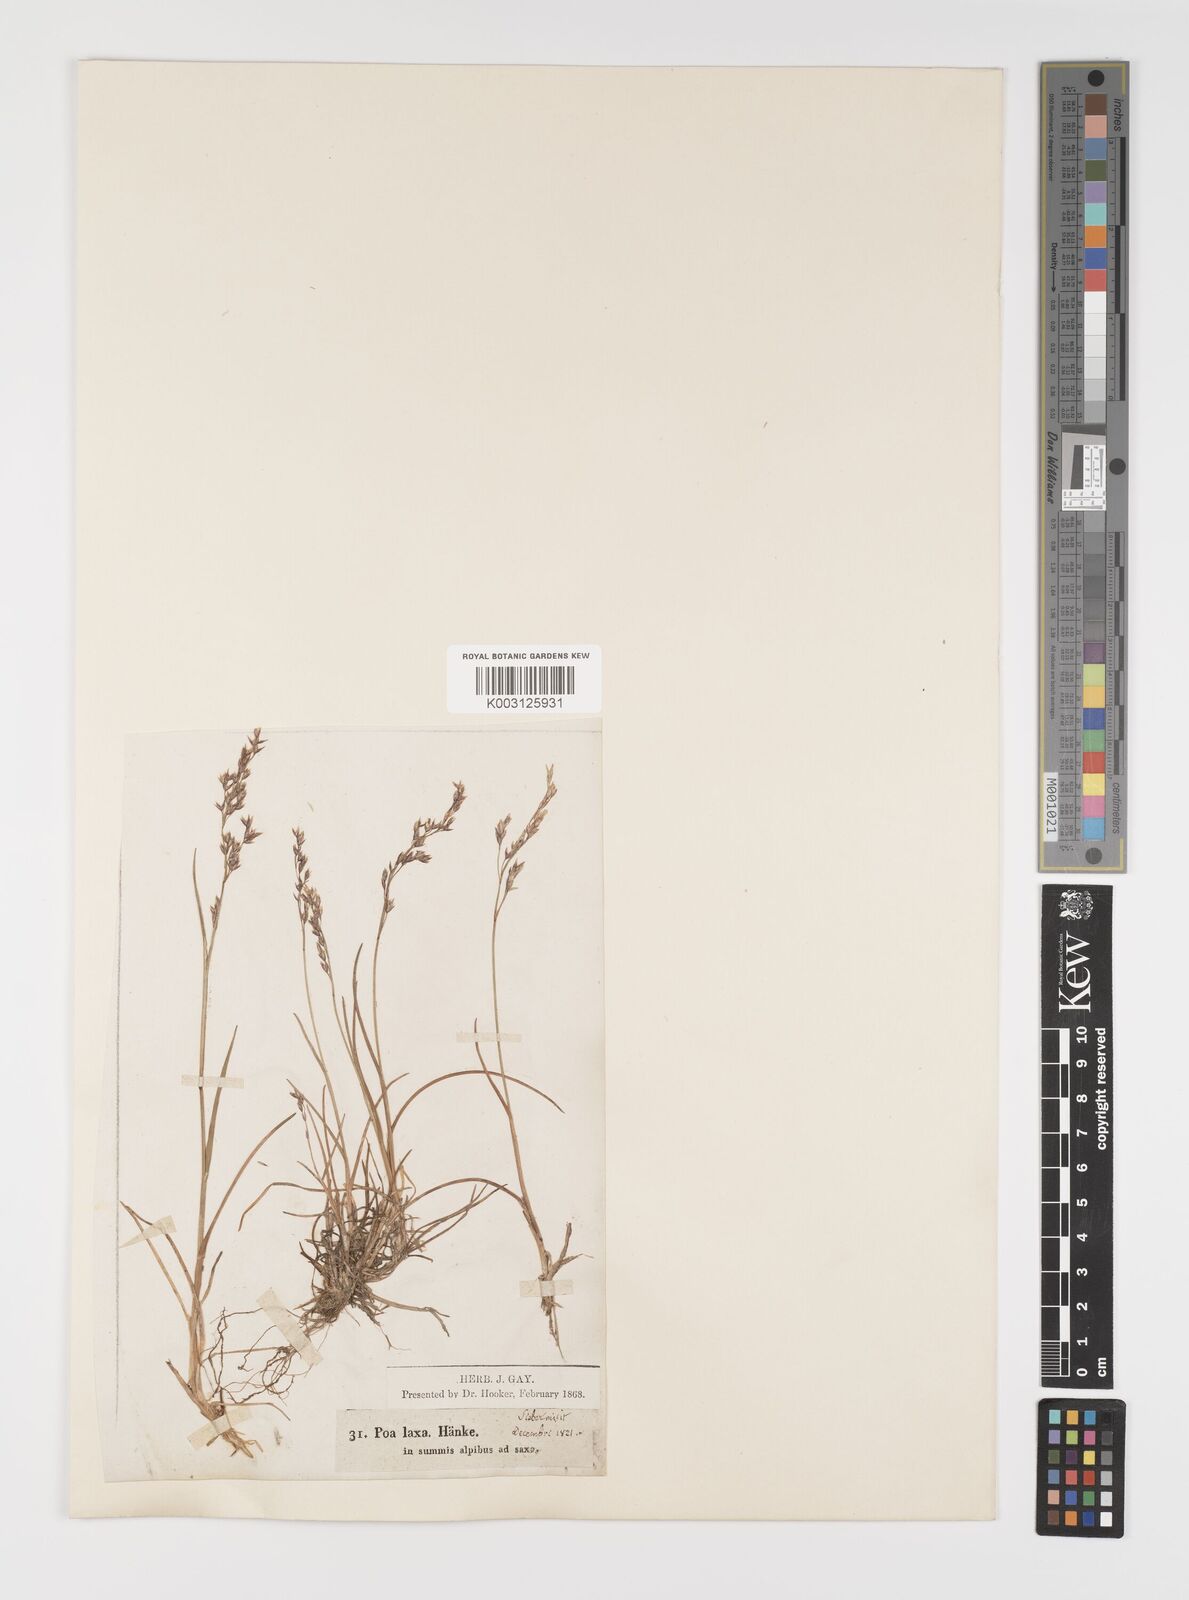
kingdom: Plantae
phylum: Tracheophyta
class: Liliopsida
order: Poales
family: Poaceae
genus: Poa
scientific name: Poa laxa
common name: Lax bluegrass
